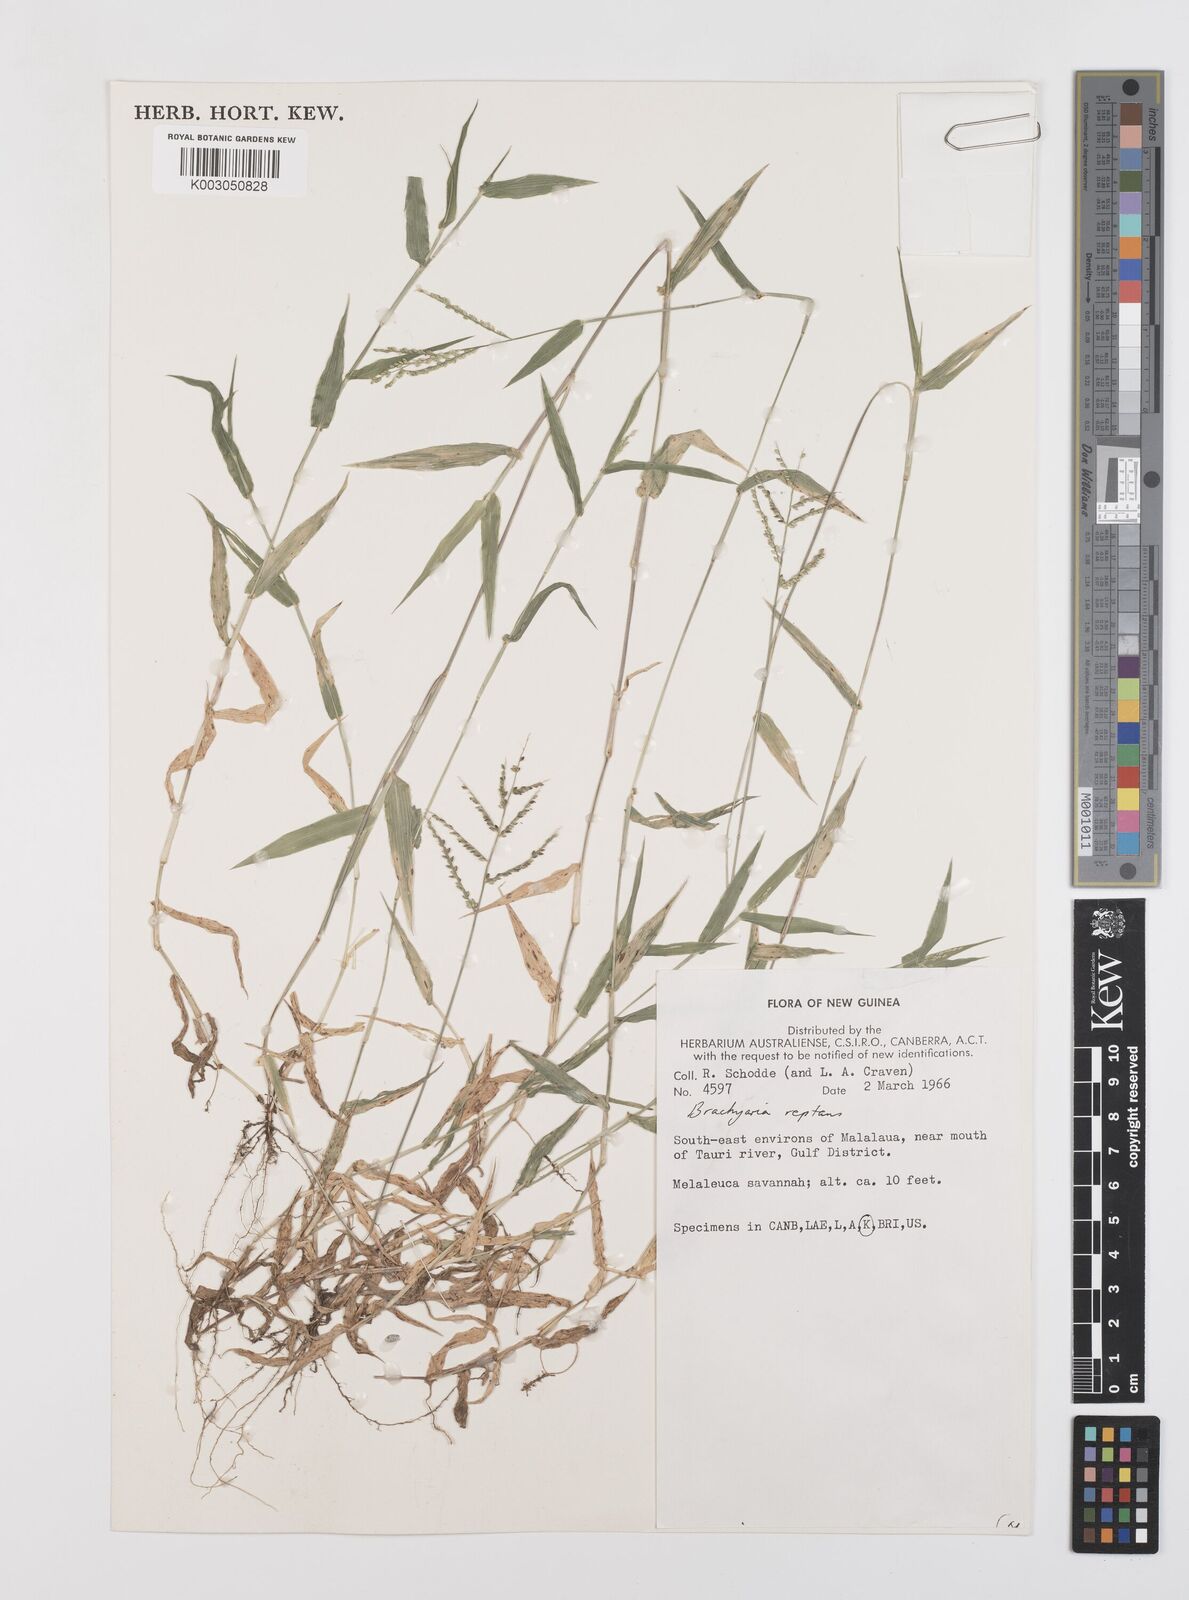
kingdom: Plantae
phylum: Tracheophyta
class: Liliopsida
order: Poales
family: Poaceae
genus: Urochloa
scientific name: Urochloa reptans
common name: Sprawling signalgrass
